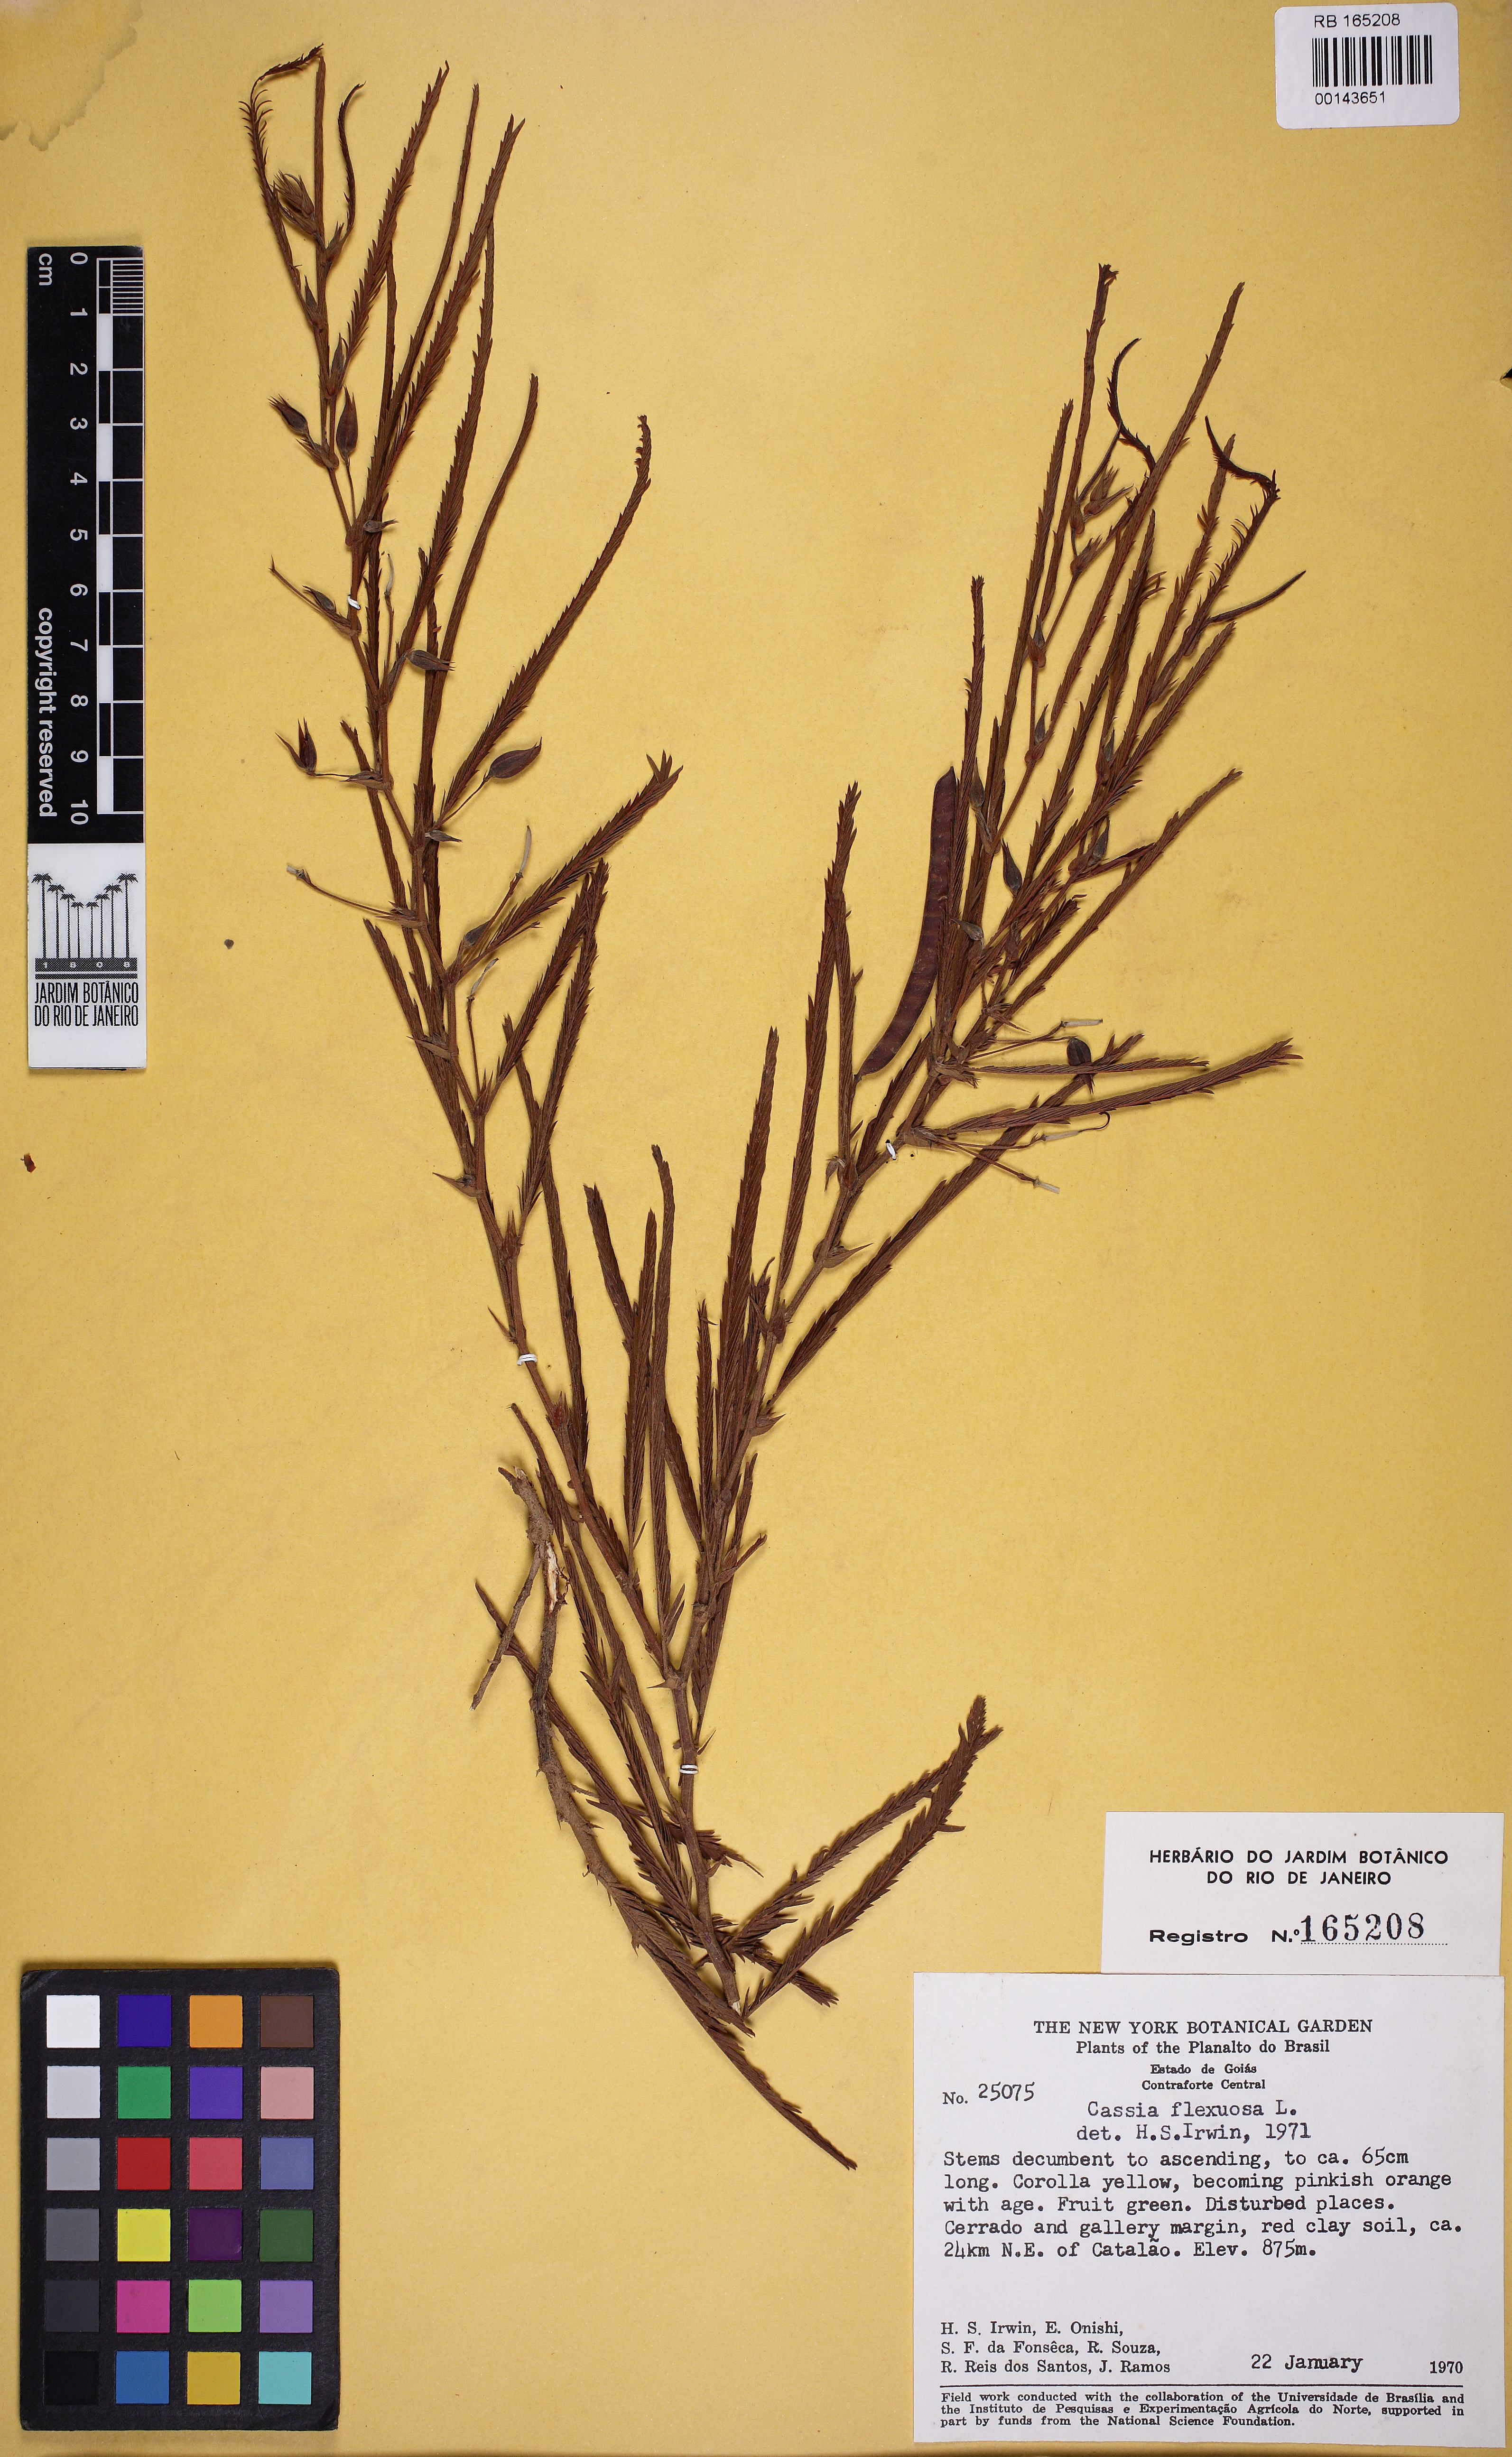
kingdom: Plantae
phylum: Tracheophyta
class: Magnoliopsida
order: Fabales
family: Fabaceae
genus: Chamaecrista
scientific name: Chamaecrista flexuosa
